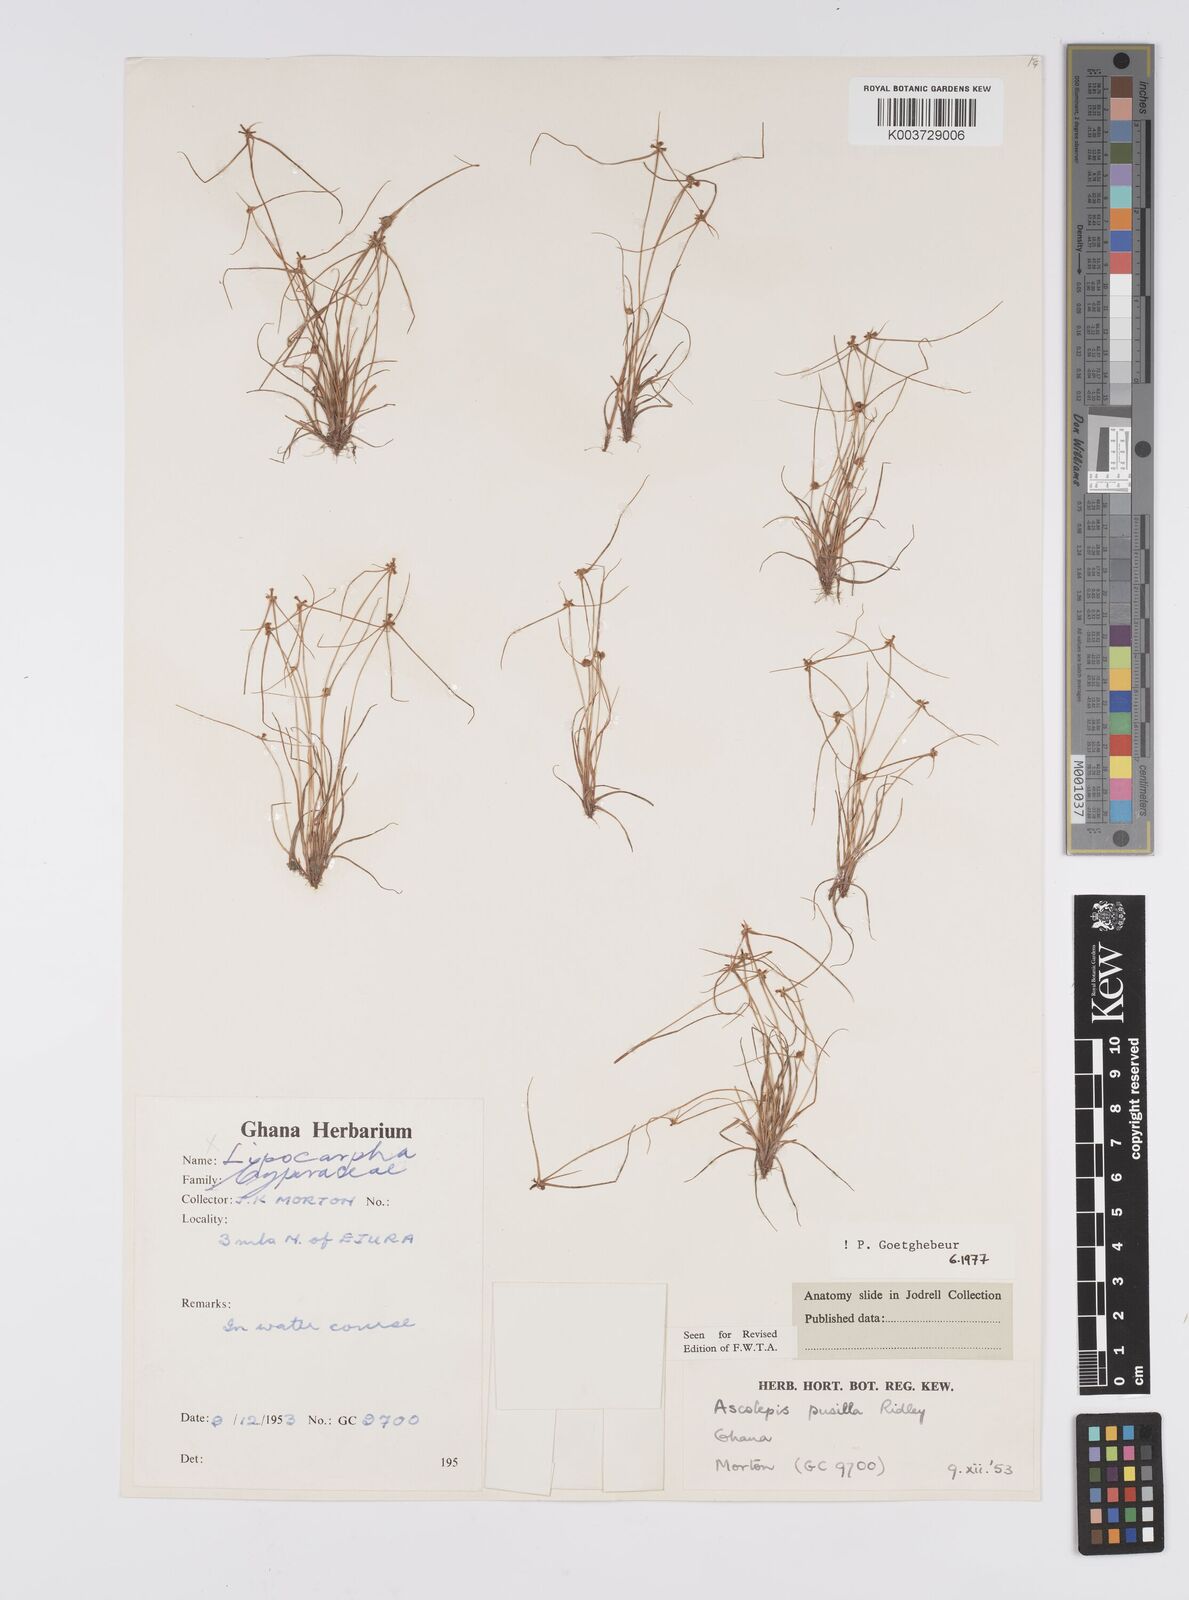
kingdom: Plantae
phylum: Tracheophyta
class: Liliopsida
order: Poales
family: Cyperaceae
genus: Ascolepis
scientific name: Ascolepis
